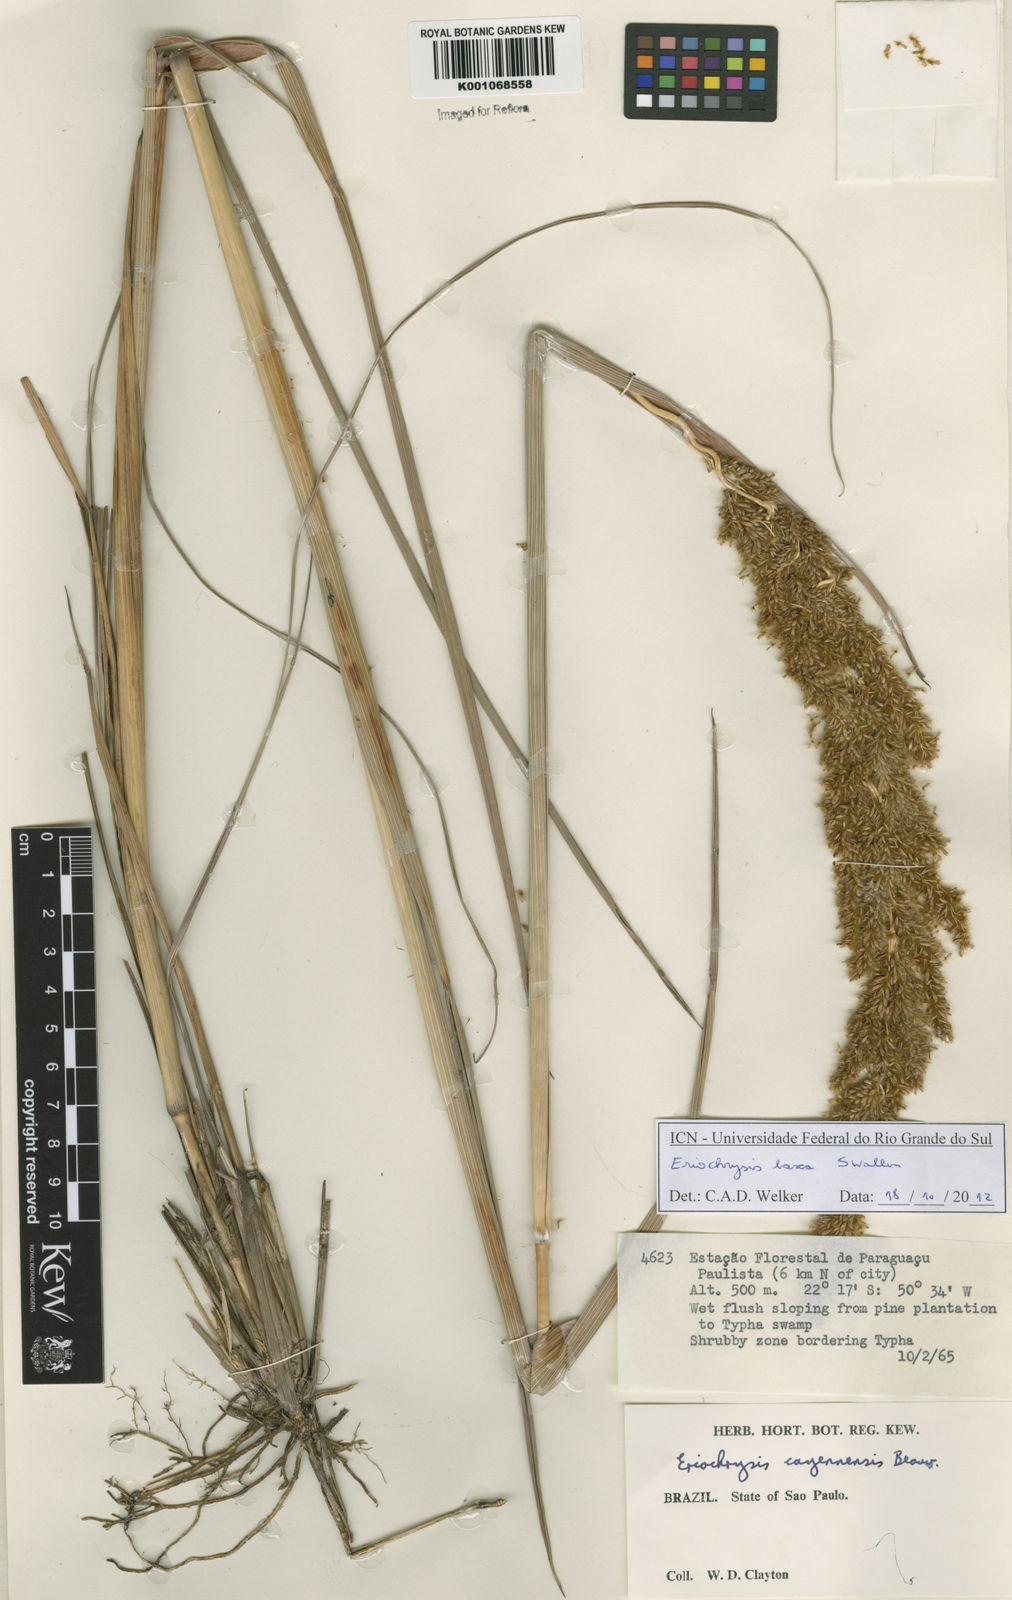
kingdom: Plantae
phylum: Tracheophyta
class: Liliopsida
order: Poales
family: Poaceae
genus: Eriochrysis
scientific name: Eriochrysis laxa
